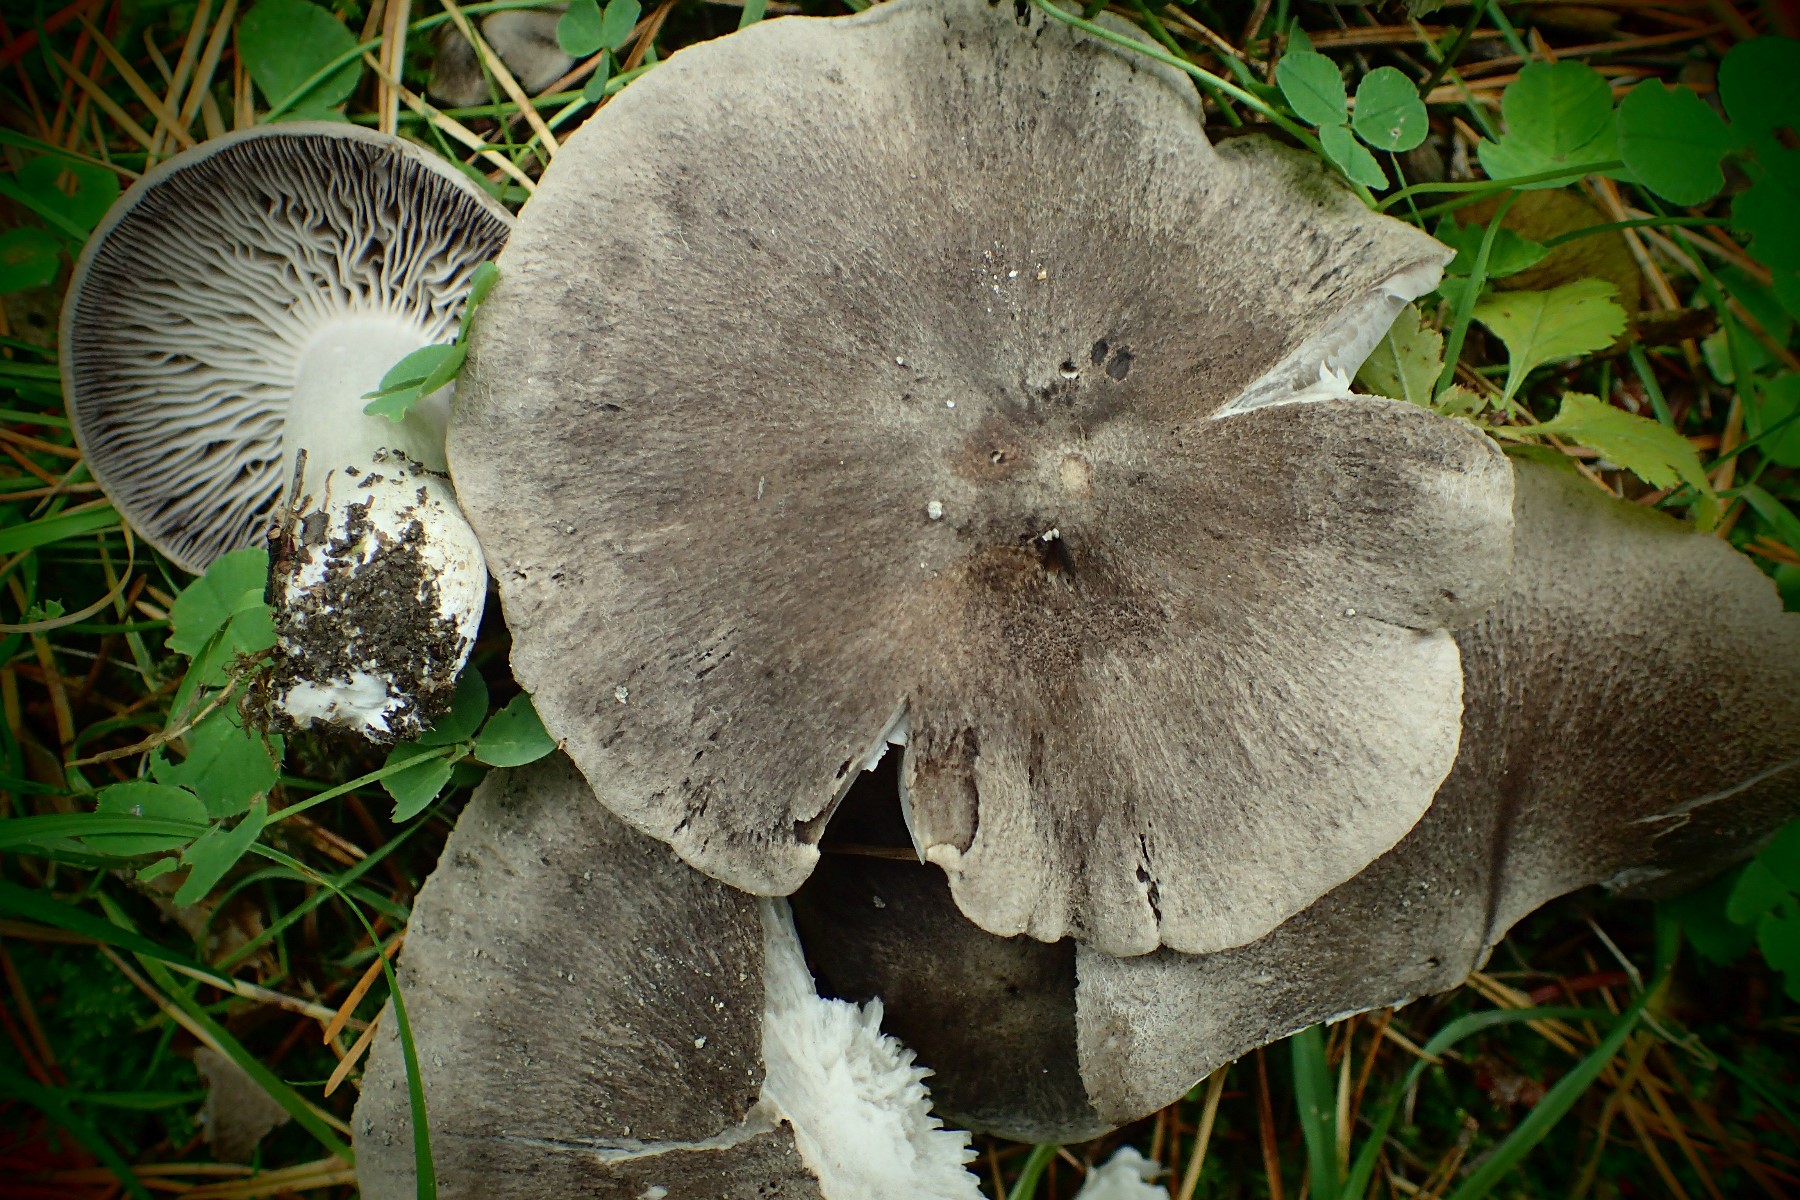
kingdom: Fungi
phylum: Basidiomycota
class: Agaricomycetes
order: Agaricales
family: Tricholomataceae
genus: Tricholoma
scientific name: Tricholoma terreum
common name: jordfarvet ridderhat
